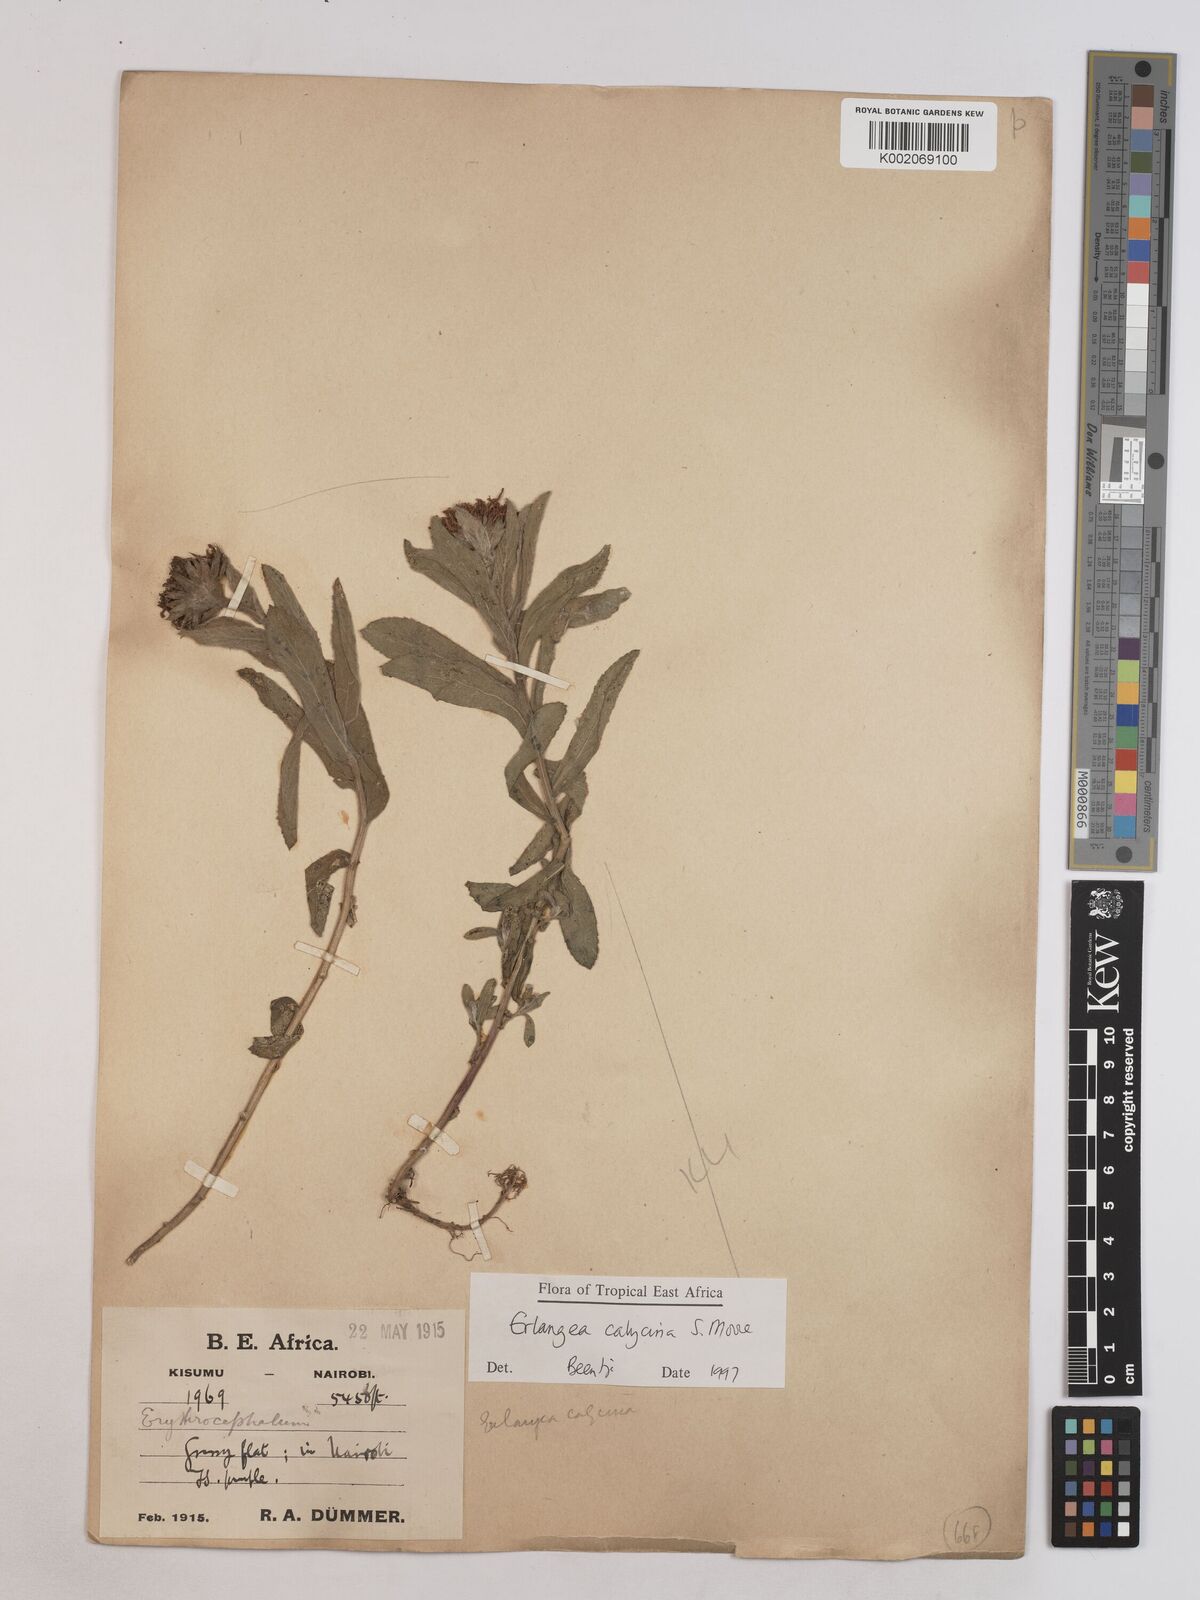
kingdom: Plantae
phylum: Tracheophyta
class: Magnoliopsida
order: Asterales
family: Asteraceae
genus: Erlangea
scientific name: Erlangea calycina
